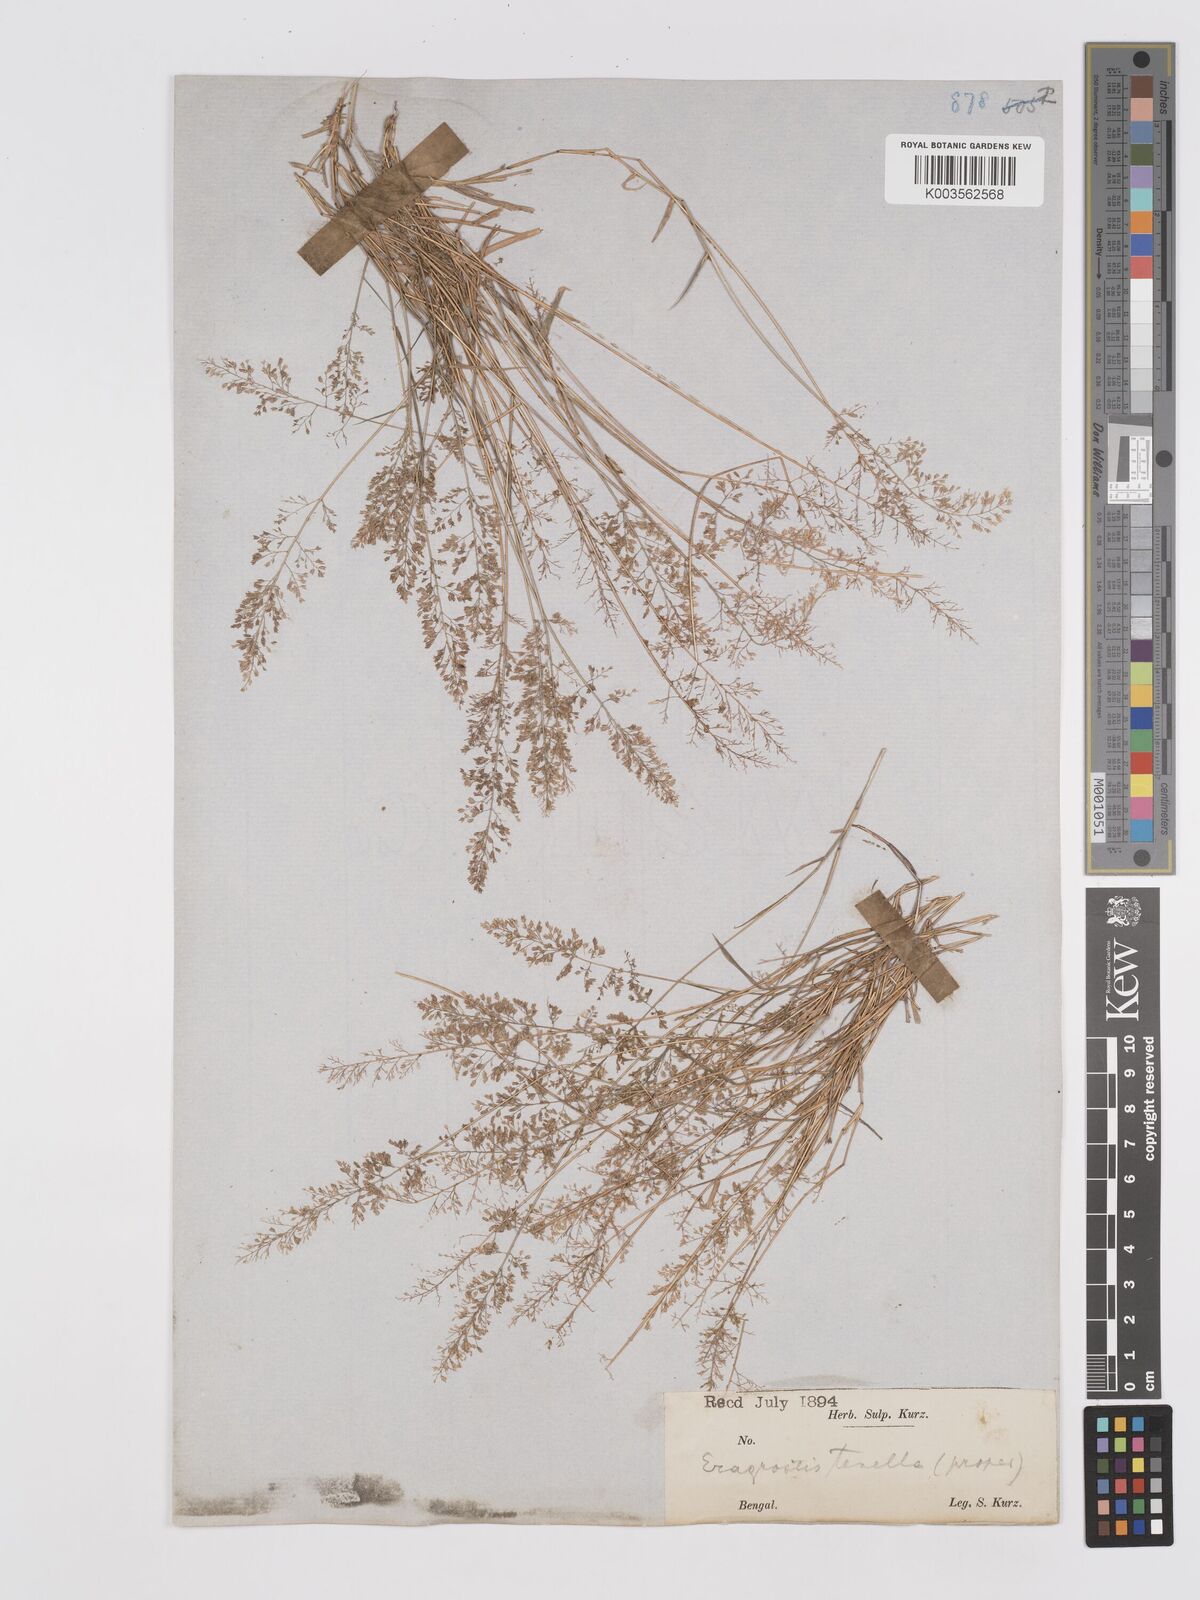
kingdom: Plantae
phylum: Tracheophyta
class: Liliopsida
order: Poales
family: Poaceae
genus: Eragrostis
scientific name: Eragrostis tenella
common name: Japanese lovegrass
